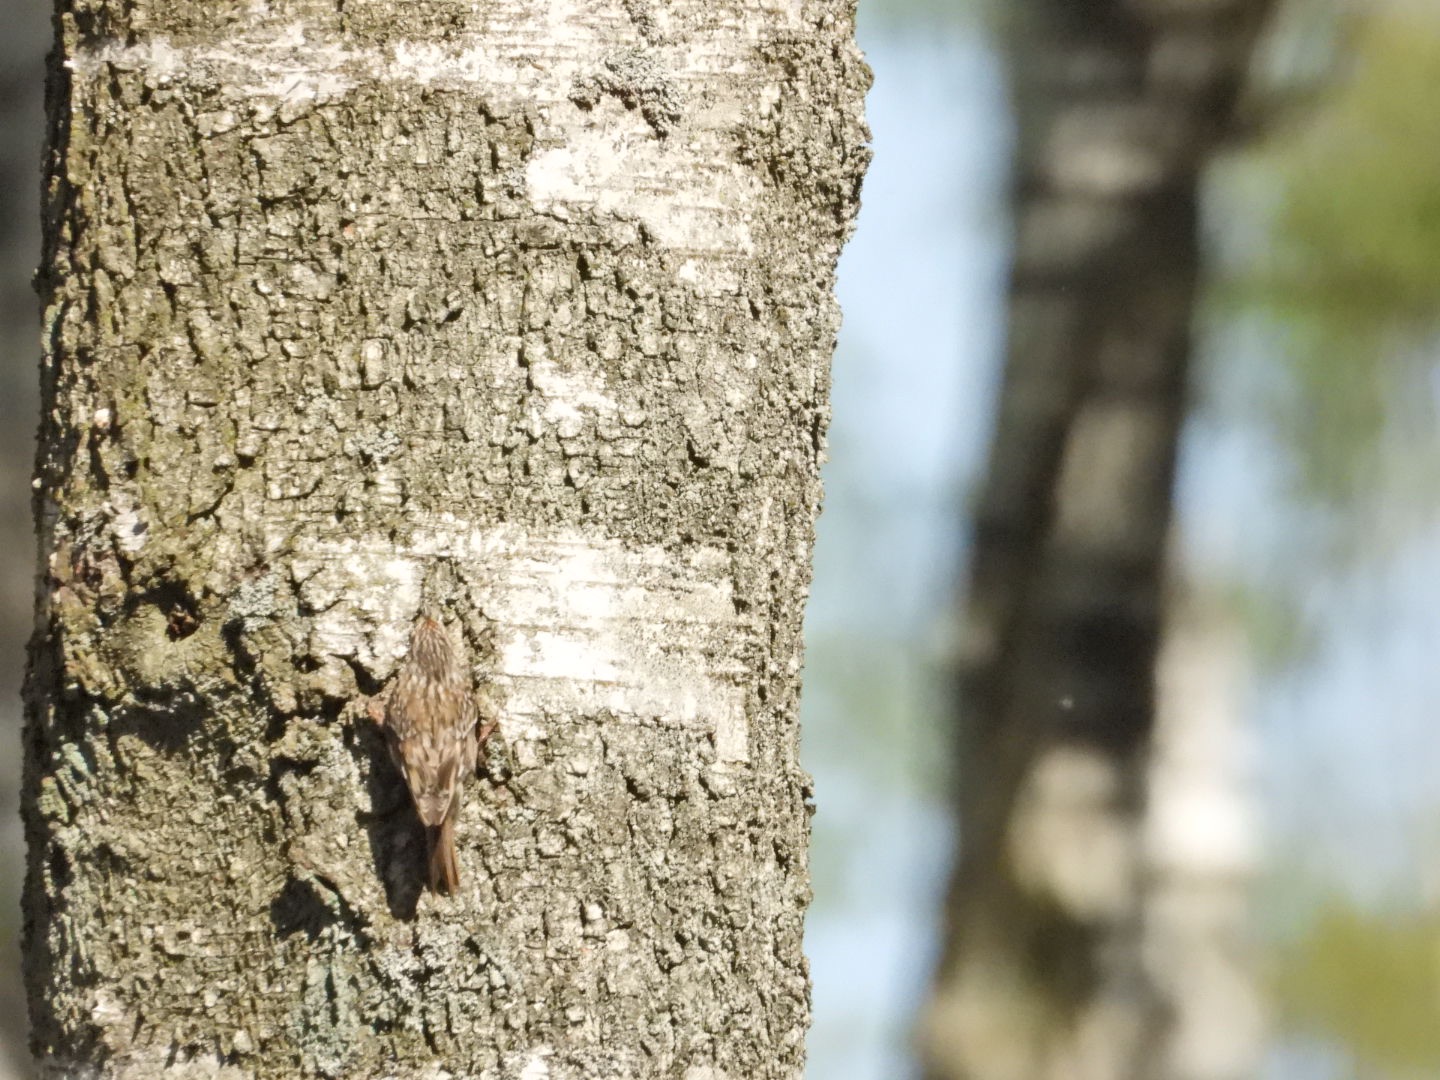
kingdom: Animalia
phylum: Chordata
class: Aves
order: Passeriformes
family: Certhiidae
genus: Certhia
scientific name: Certhia familiaris
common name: Træløber
